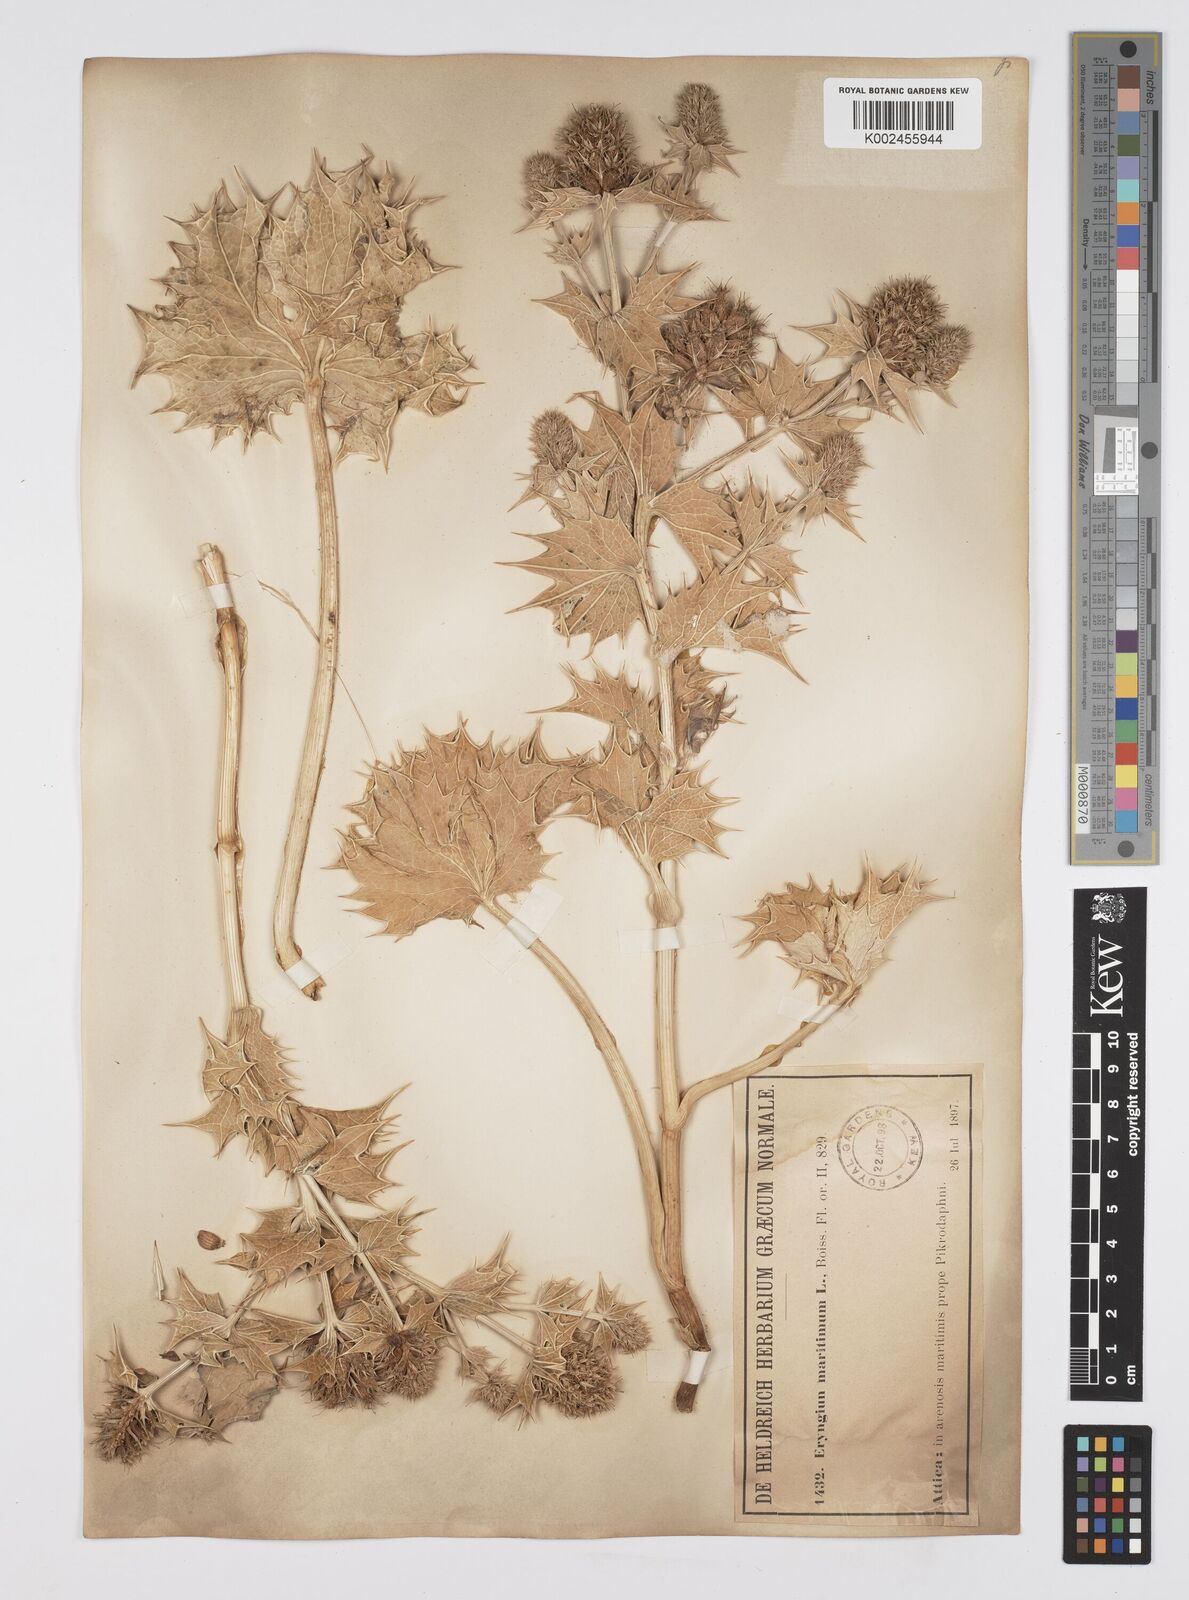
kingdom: Plantae
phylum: Tracheophyta
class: Magnoliopsida
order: Apiales
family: Apiaceae
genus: Eryngium
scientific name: Eryngium maritimum
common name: Sea-holly
